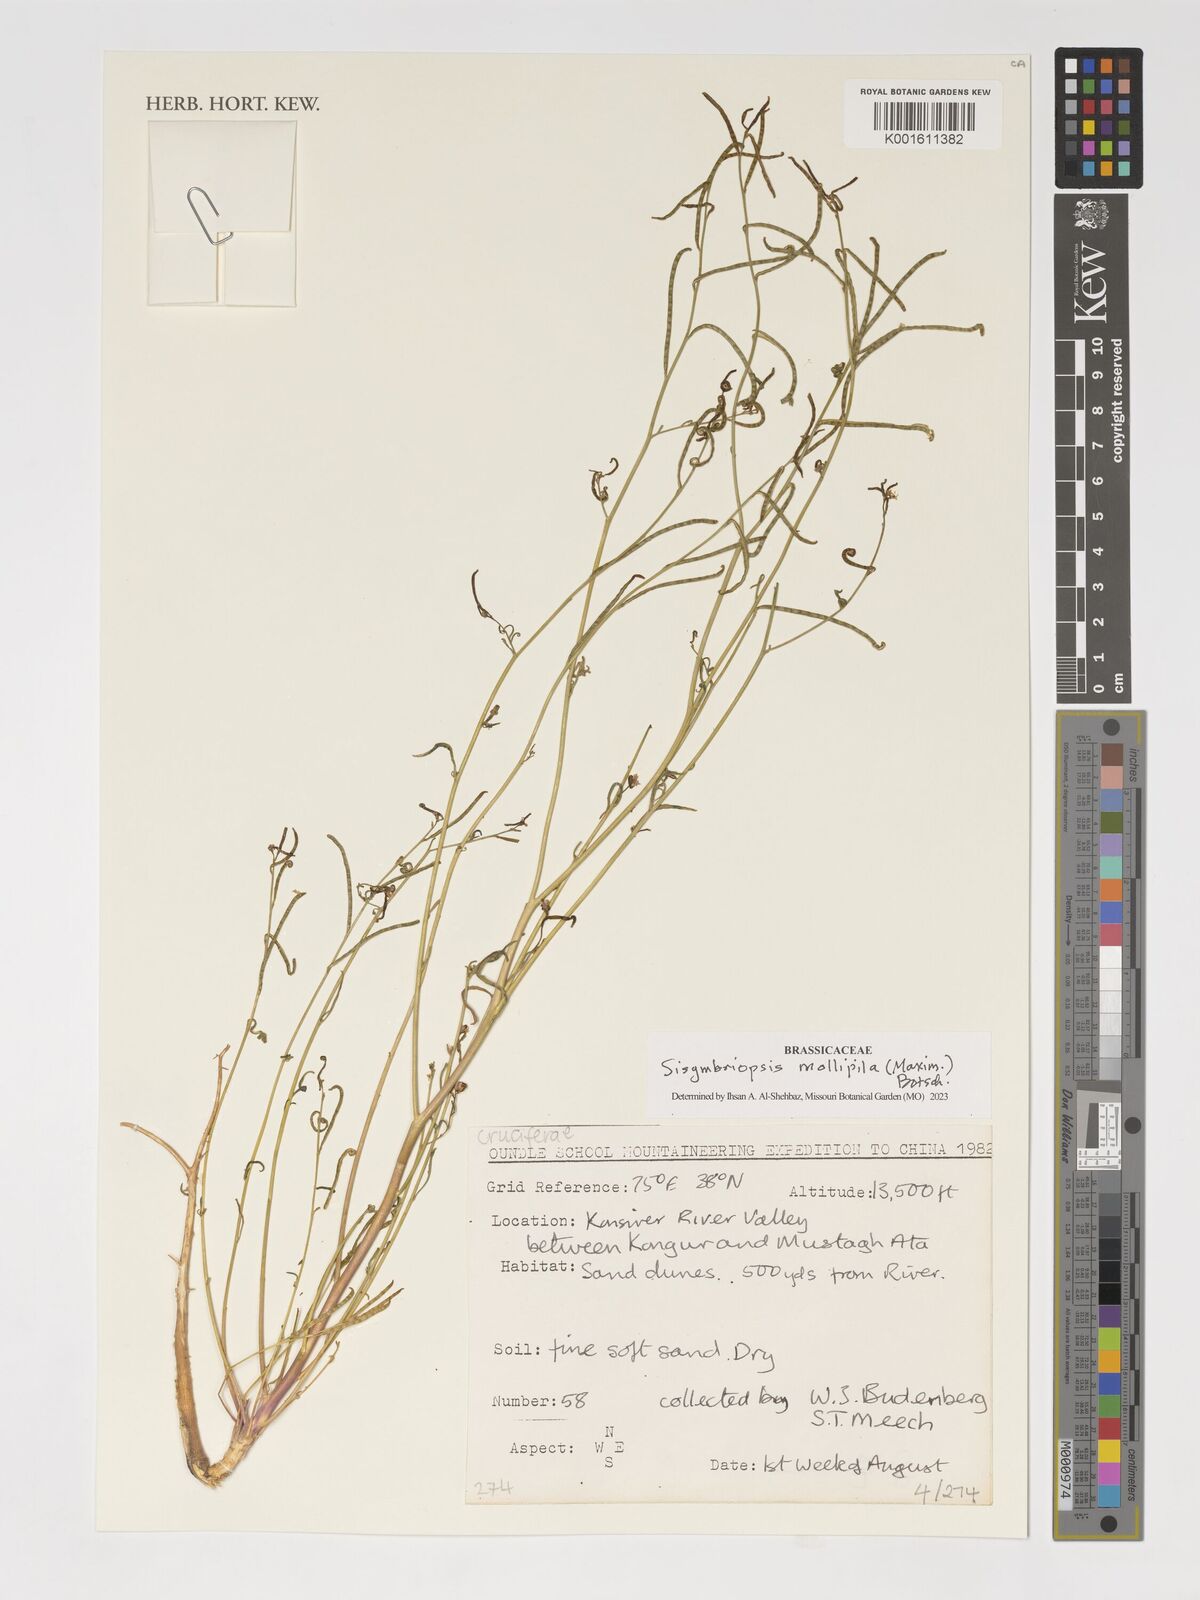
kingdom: Plantae
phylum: Tracheophyta
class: Magnoliopsida
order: Brassicales
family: Brassicaceae
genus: Sisymbriopsis
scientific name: Sisymbriopsis mollipila
